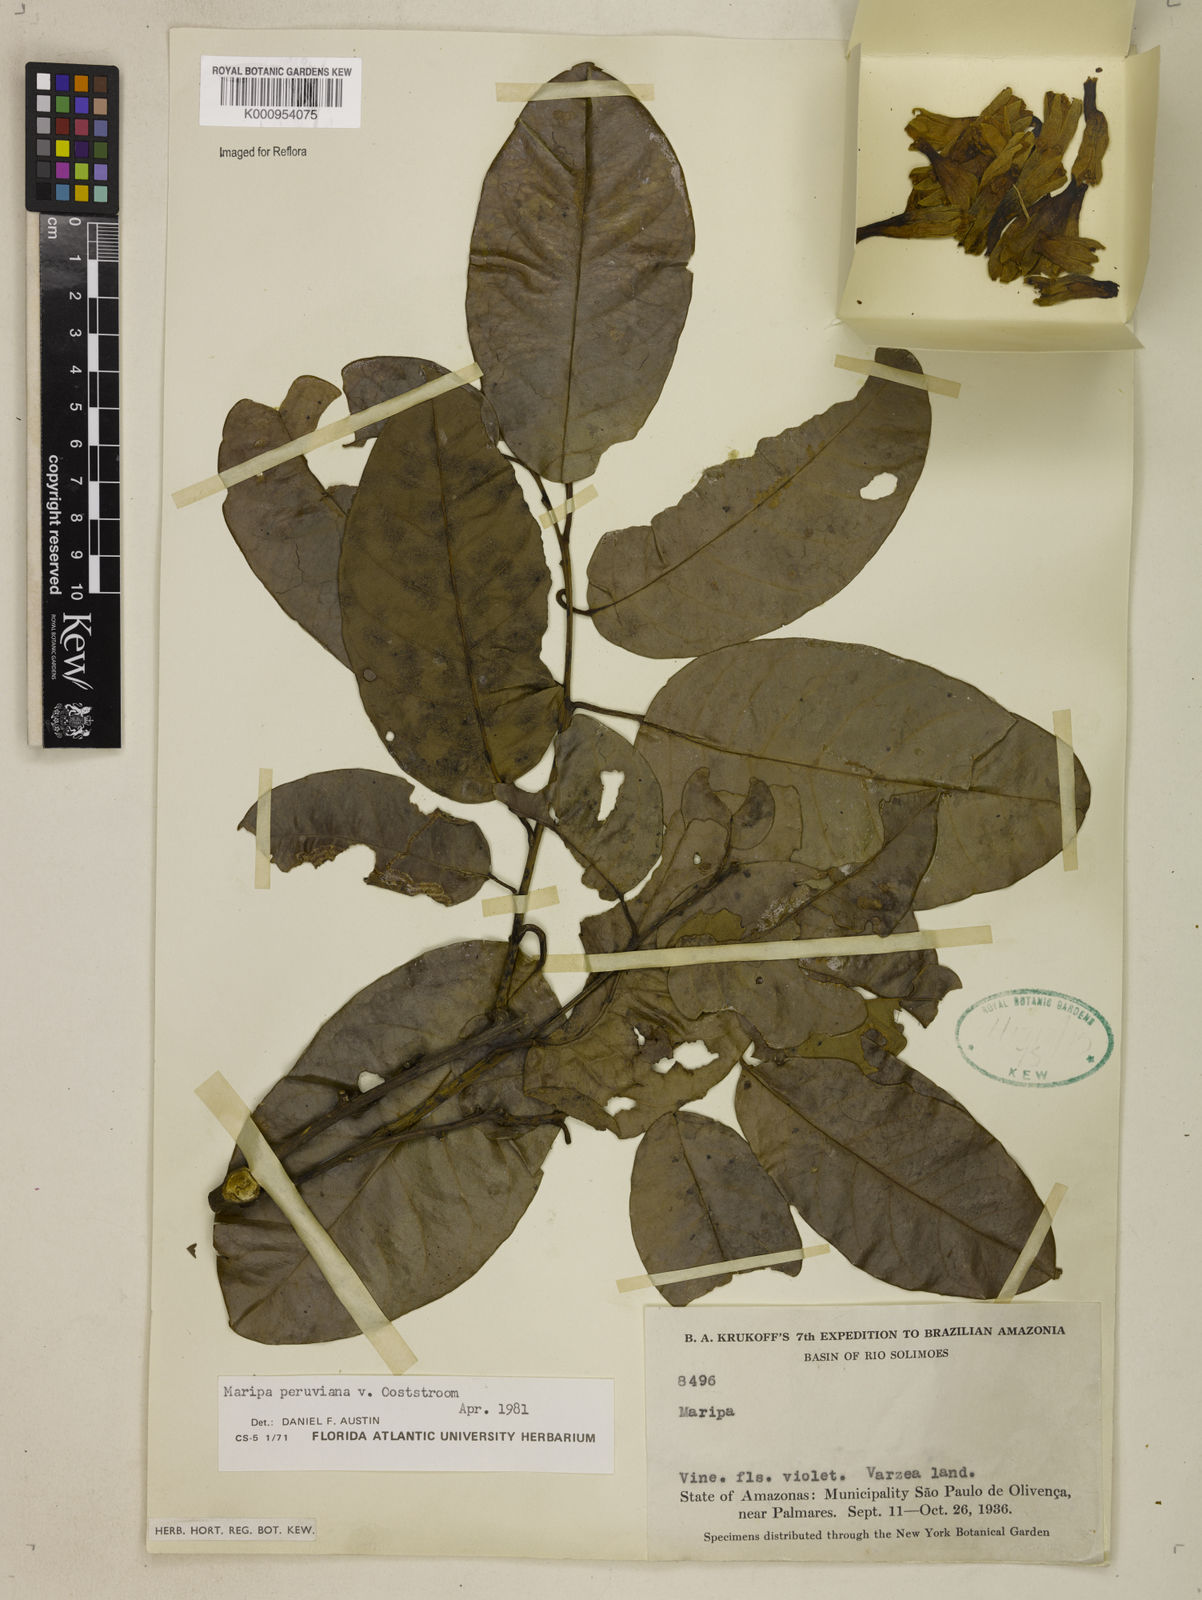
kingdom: Plantae
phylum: Tracheophyta
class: Magnoliopsida
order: Solanales
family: Convolvulaceae
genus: Maripa
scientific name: Maripa paniculata
